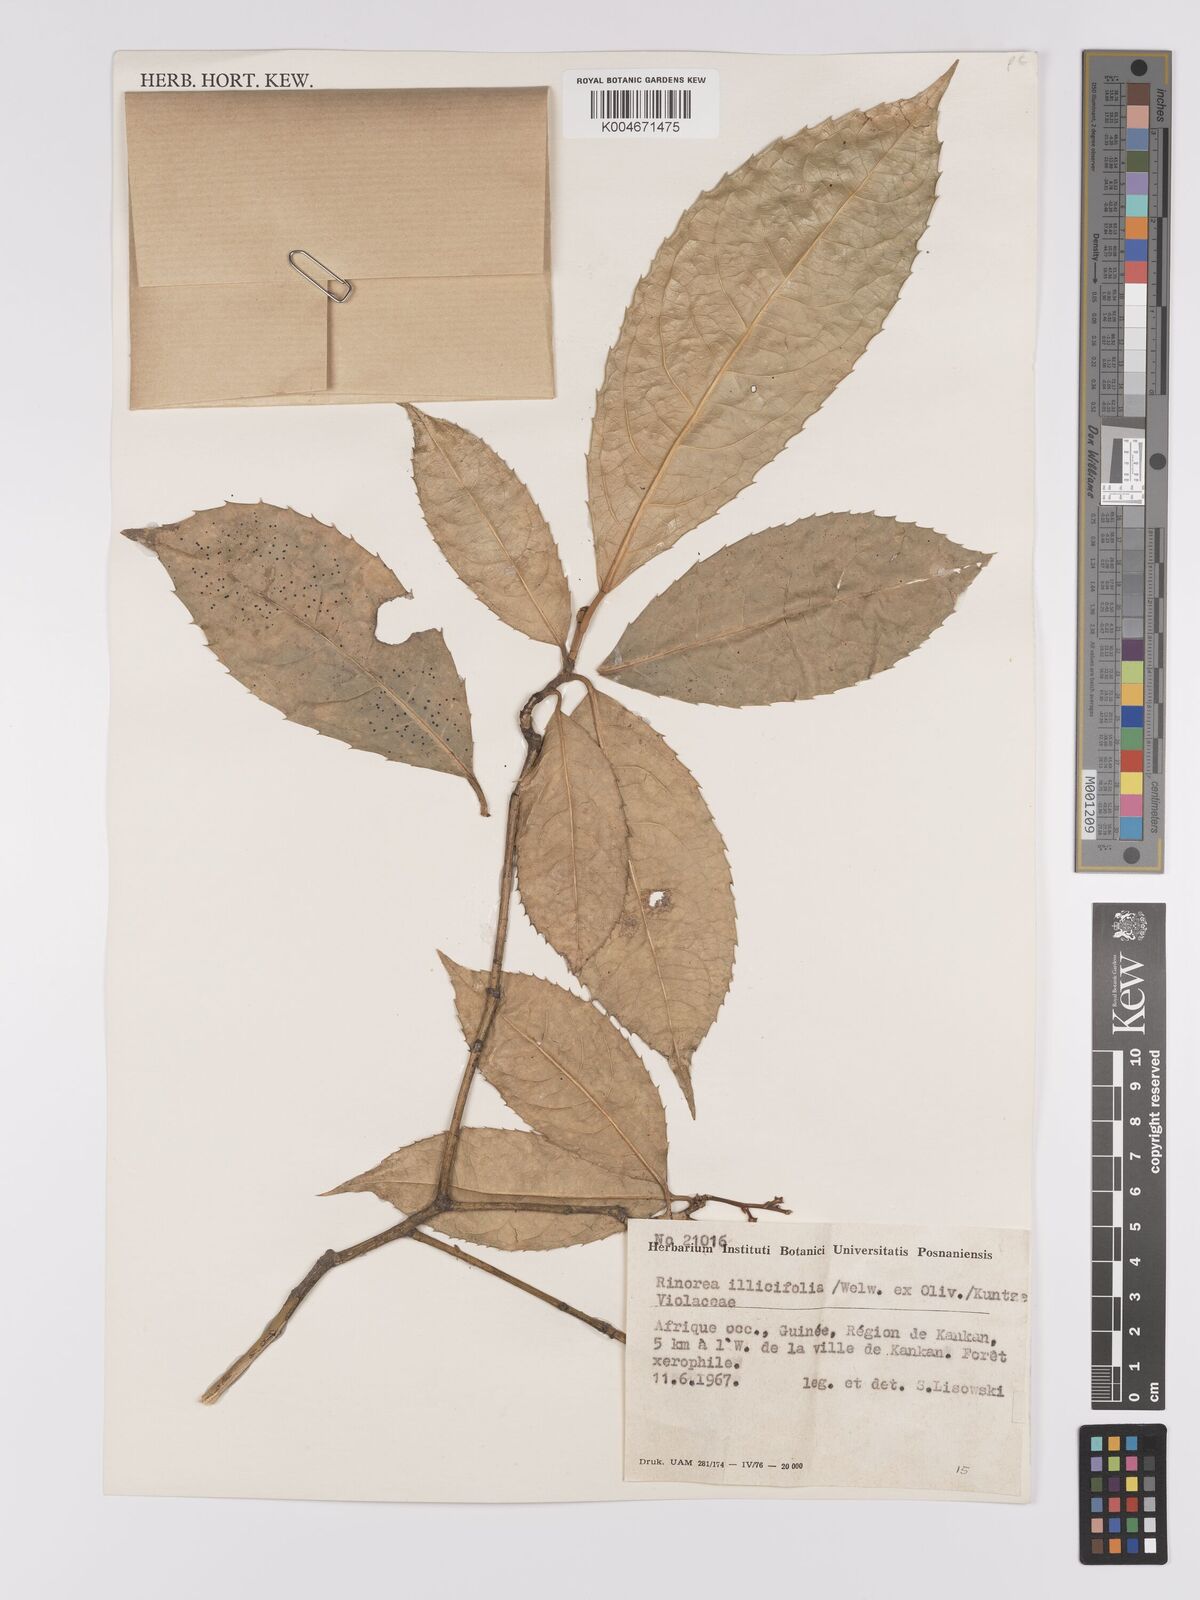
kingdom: Plantae
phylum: Tracheophyta
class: Magnoliopsida
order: Malpighiales
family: Violaceae
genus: Rinorea
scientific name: Rinorea ilicifolia
